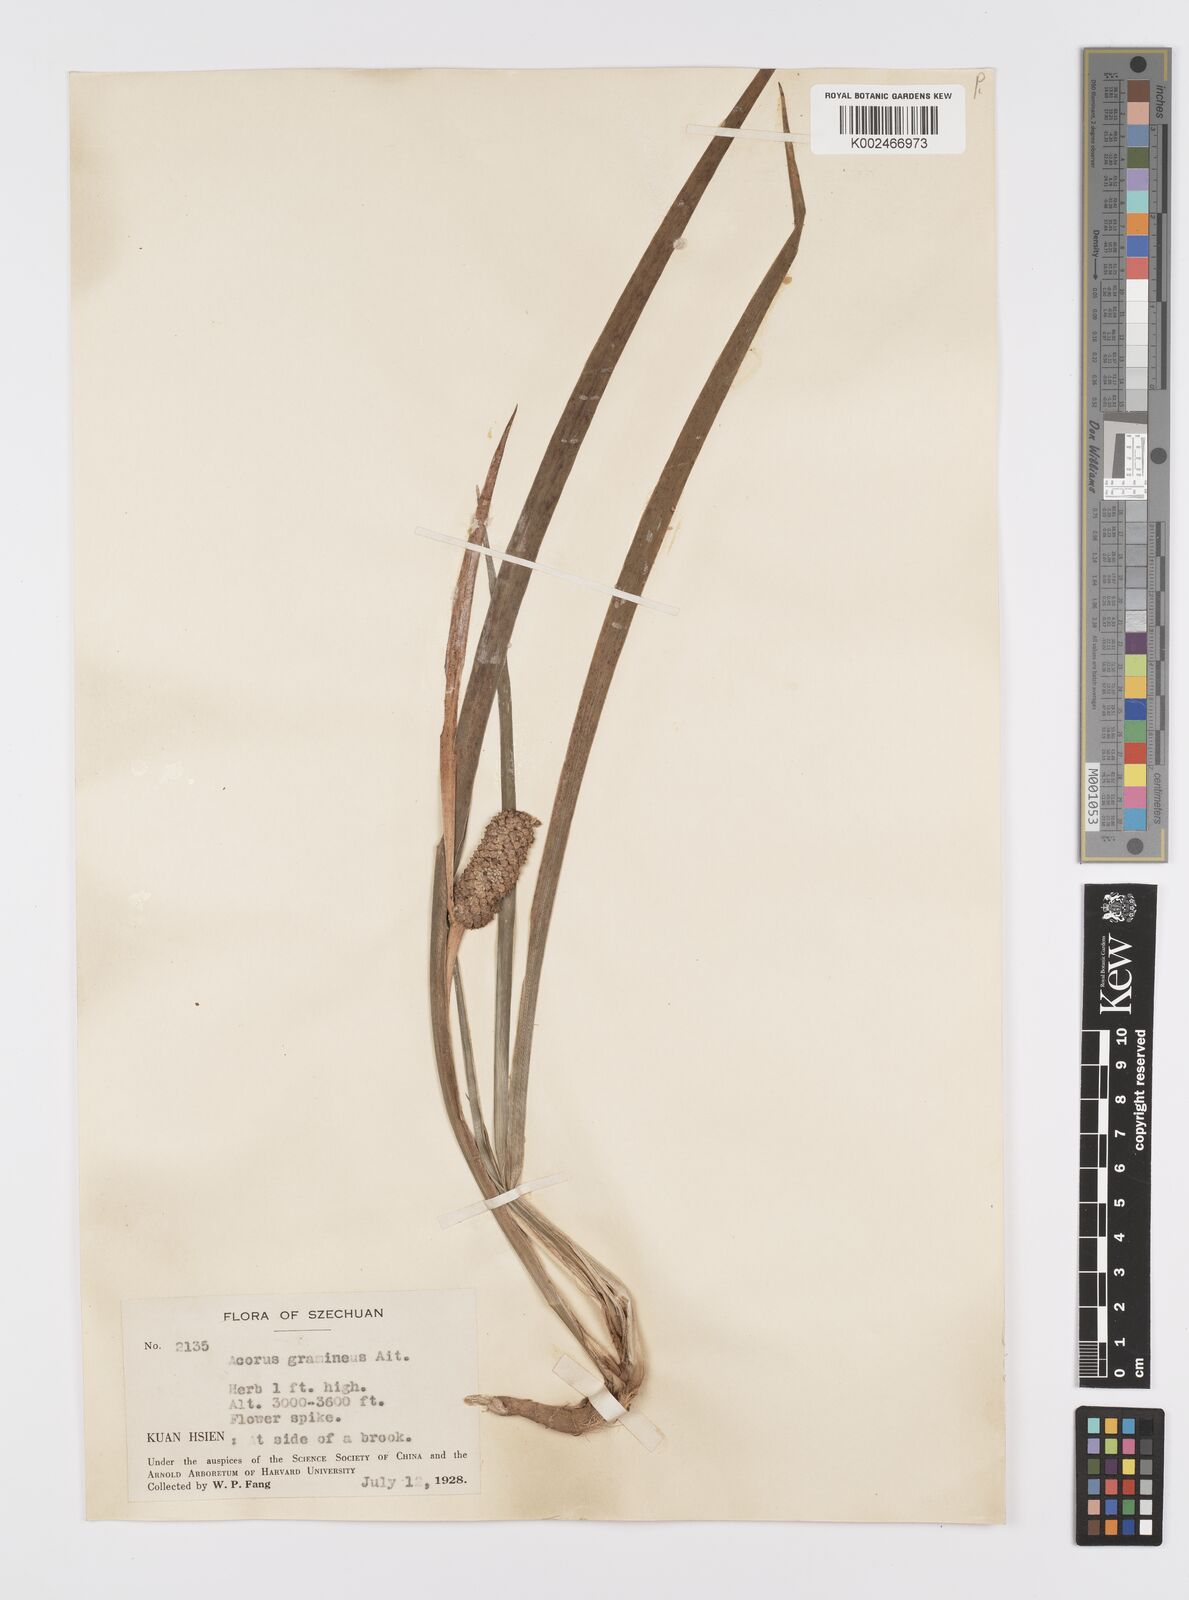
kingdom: Plantae
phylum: Tracheophyta
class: Liliopsida
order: Acorales
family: Acoraceae
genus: Acorus
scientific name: Acorus gramineus
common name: Slender sweet-flag
